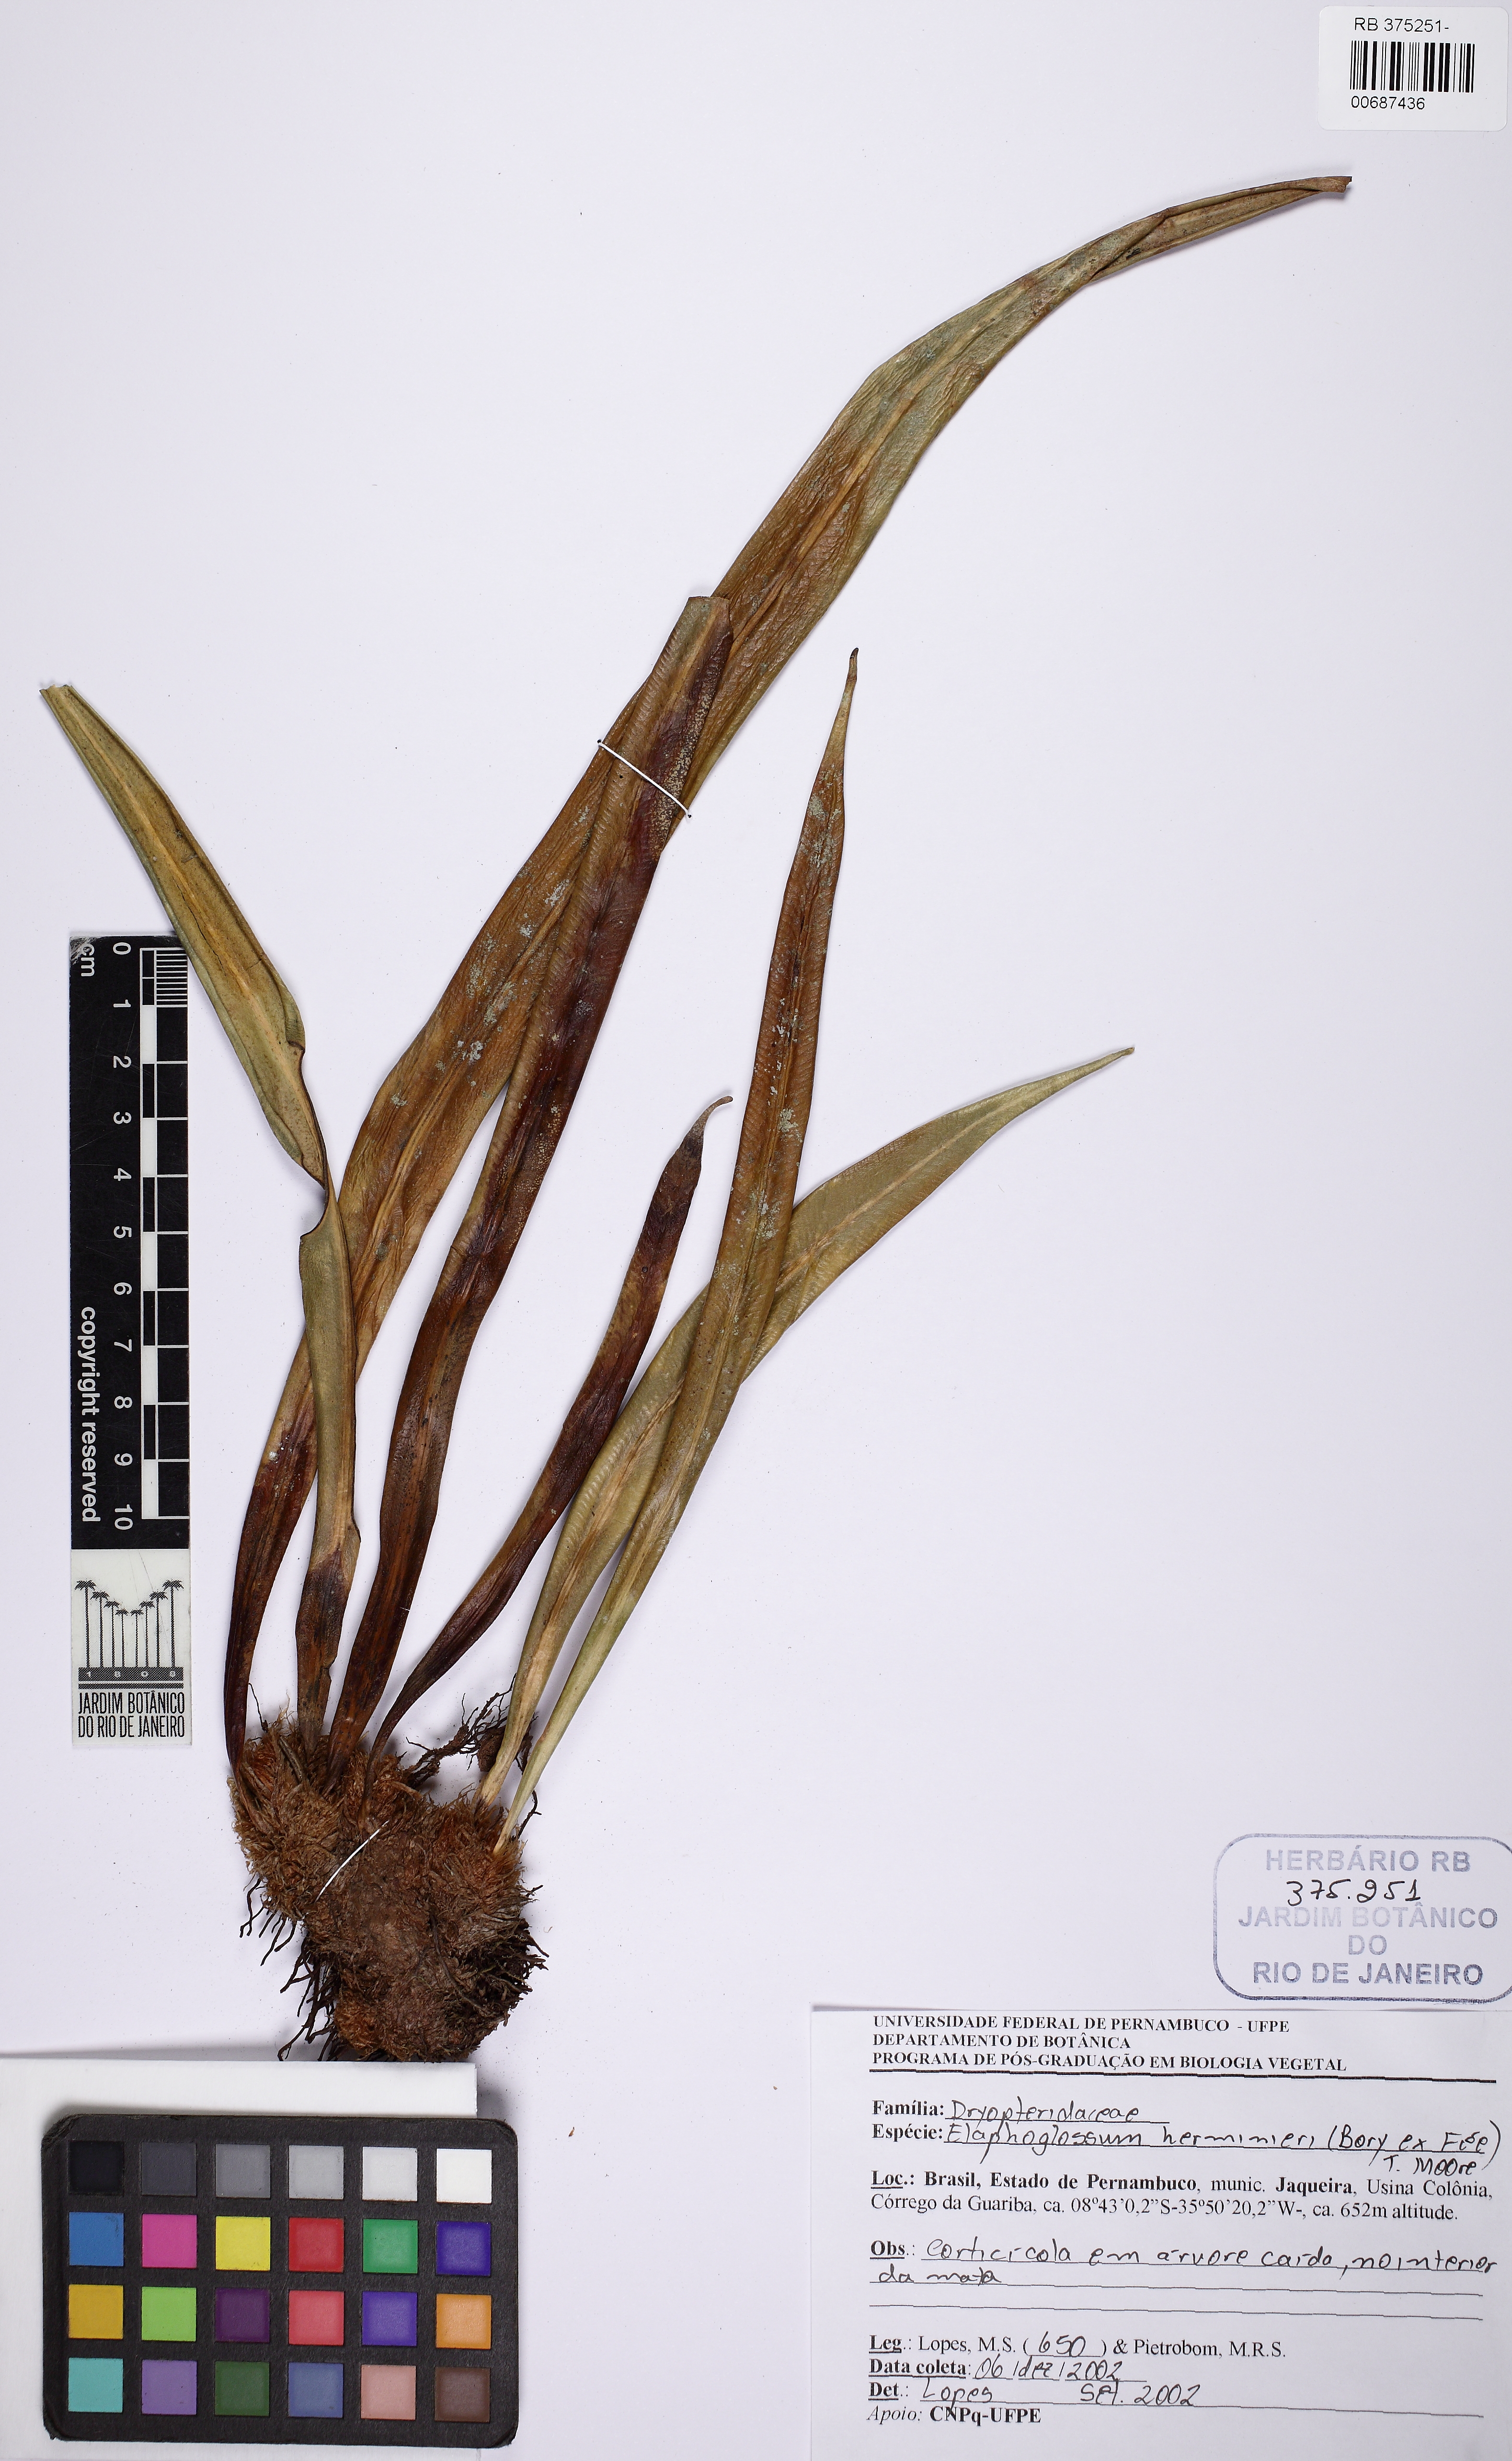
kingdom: Plantae
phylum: Tracheophyta
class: Polypodiopsida
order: Polypodiales
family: Dryopteridaceae
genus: Elaphoglossum
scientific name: Elaphoglossum herminieri
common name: Drooping tonguefern
